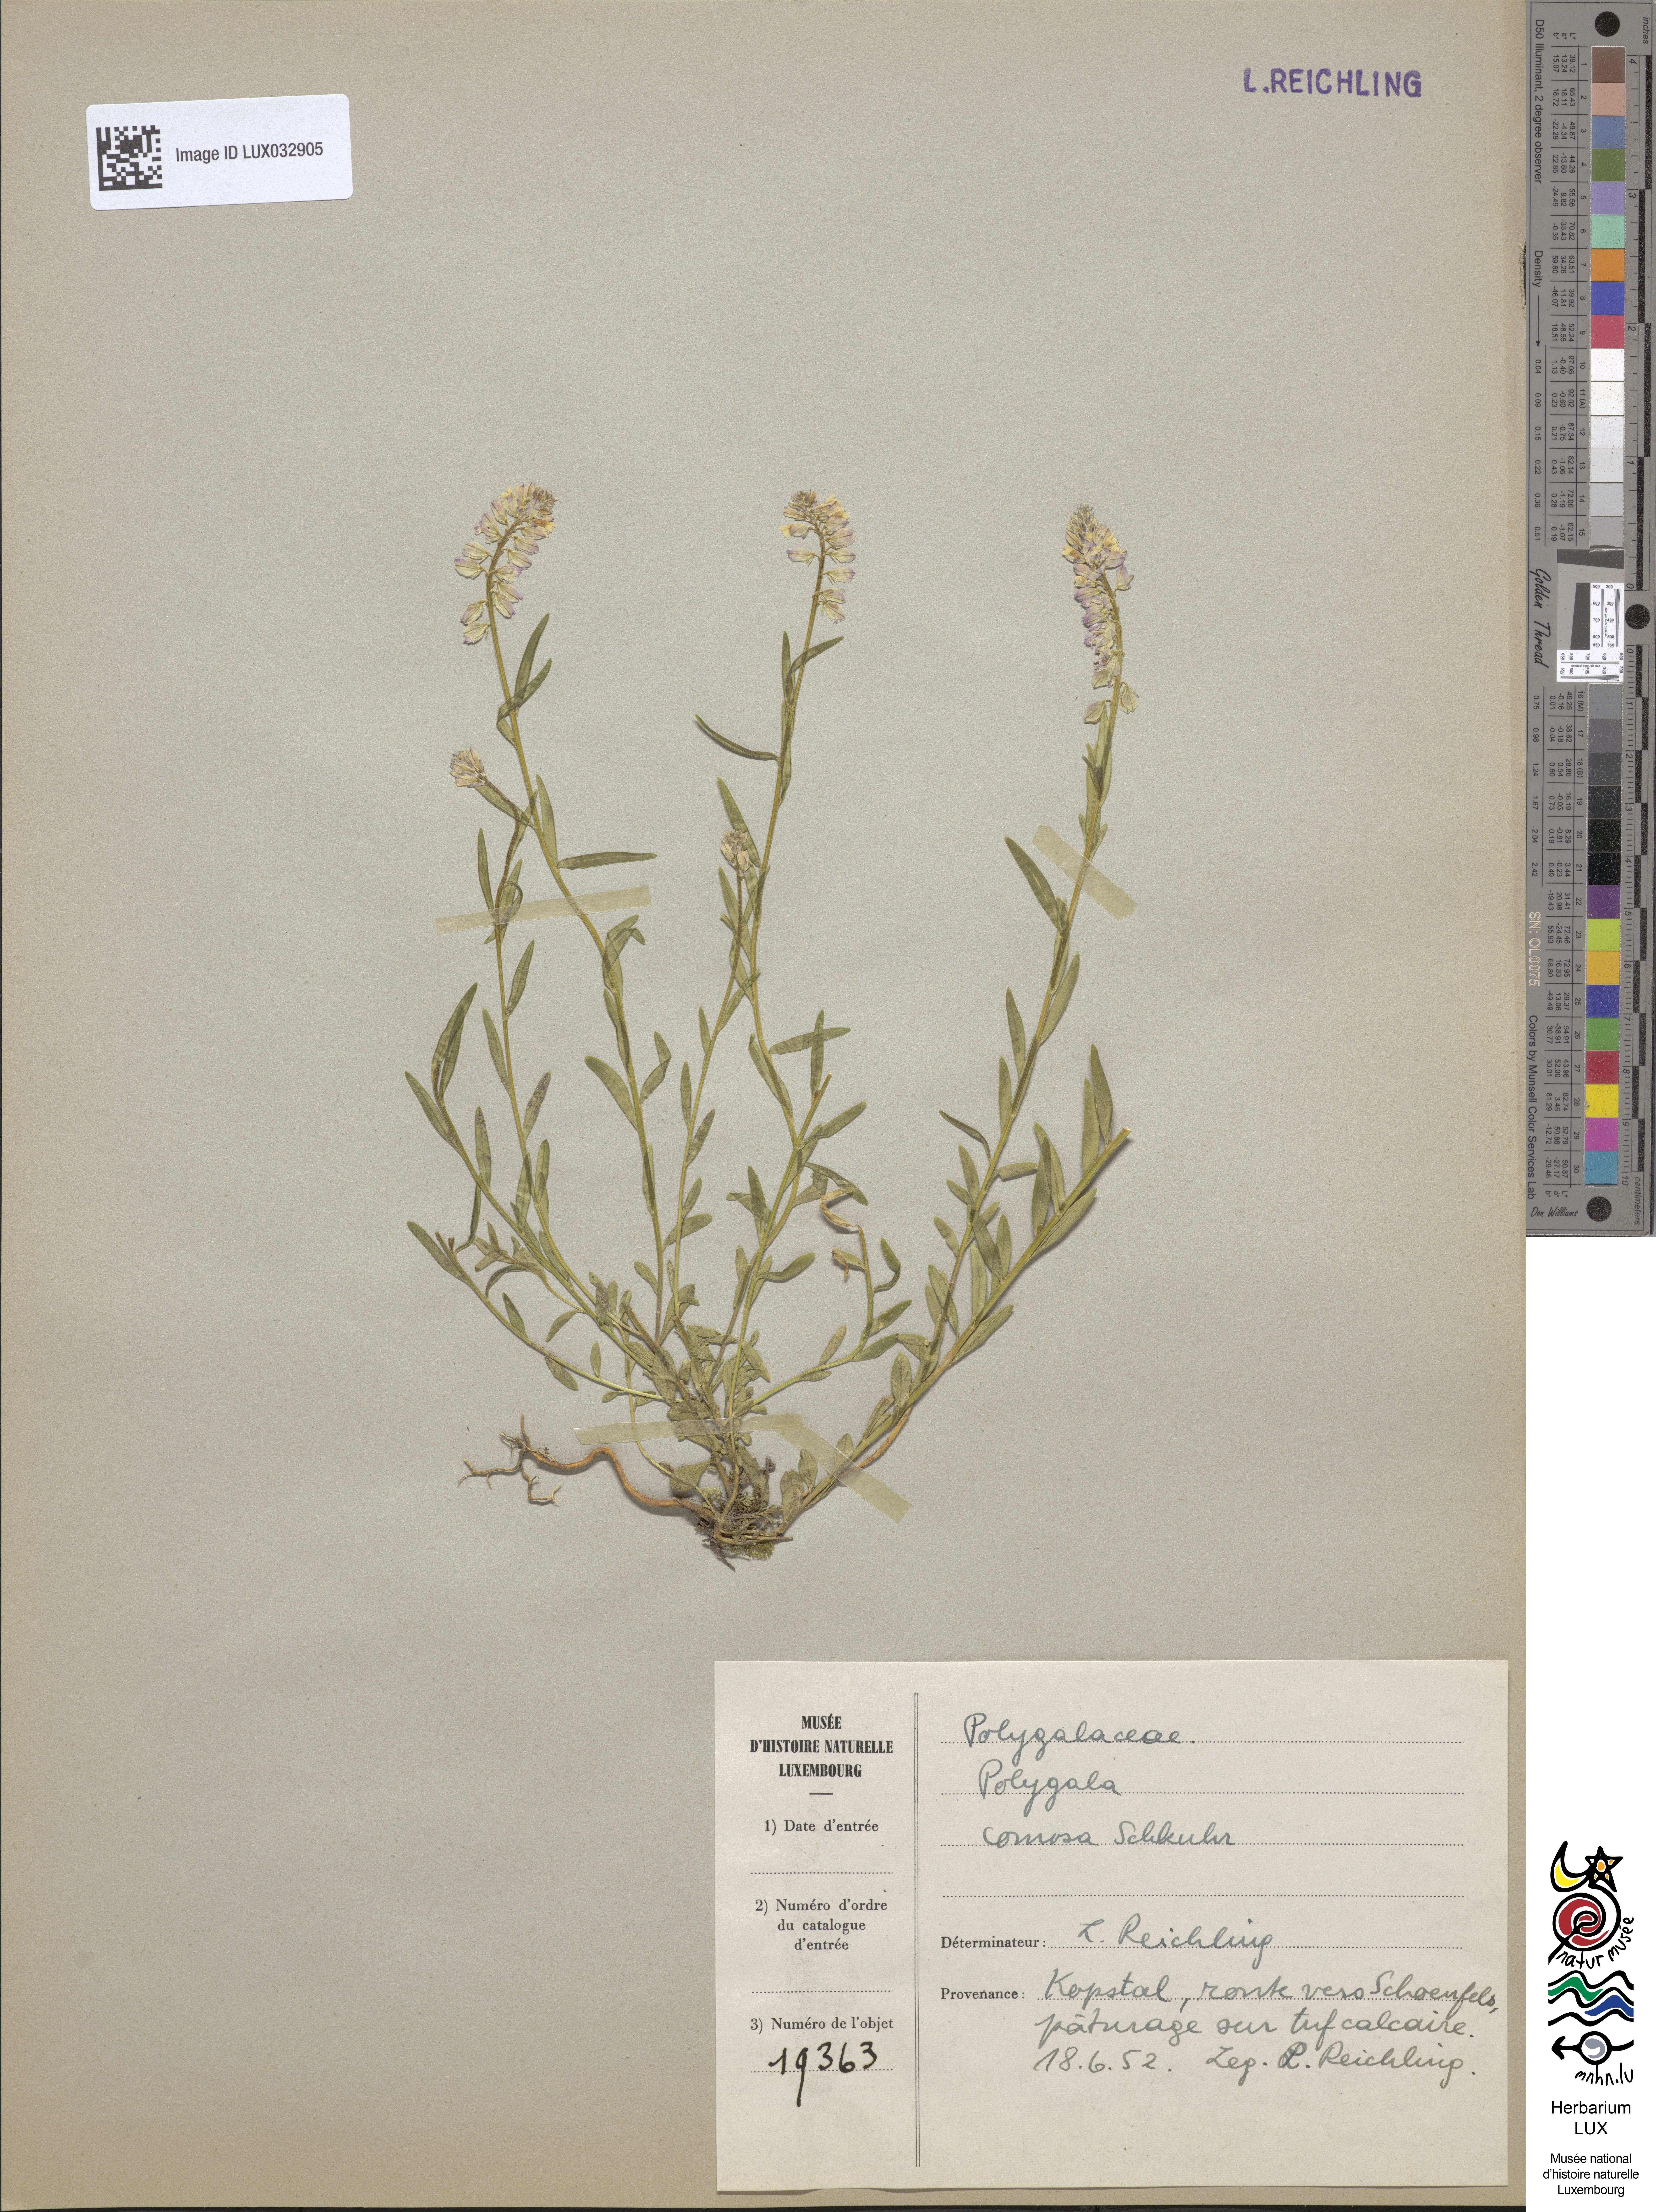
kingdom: Plantae
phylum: Tracheophyta
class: Magnoliopsida
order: Fabales
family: Polygalaceae
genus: Polygala
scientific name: Polygala comosa
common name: Tufted milkwort
